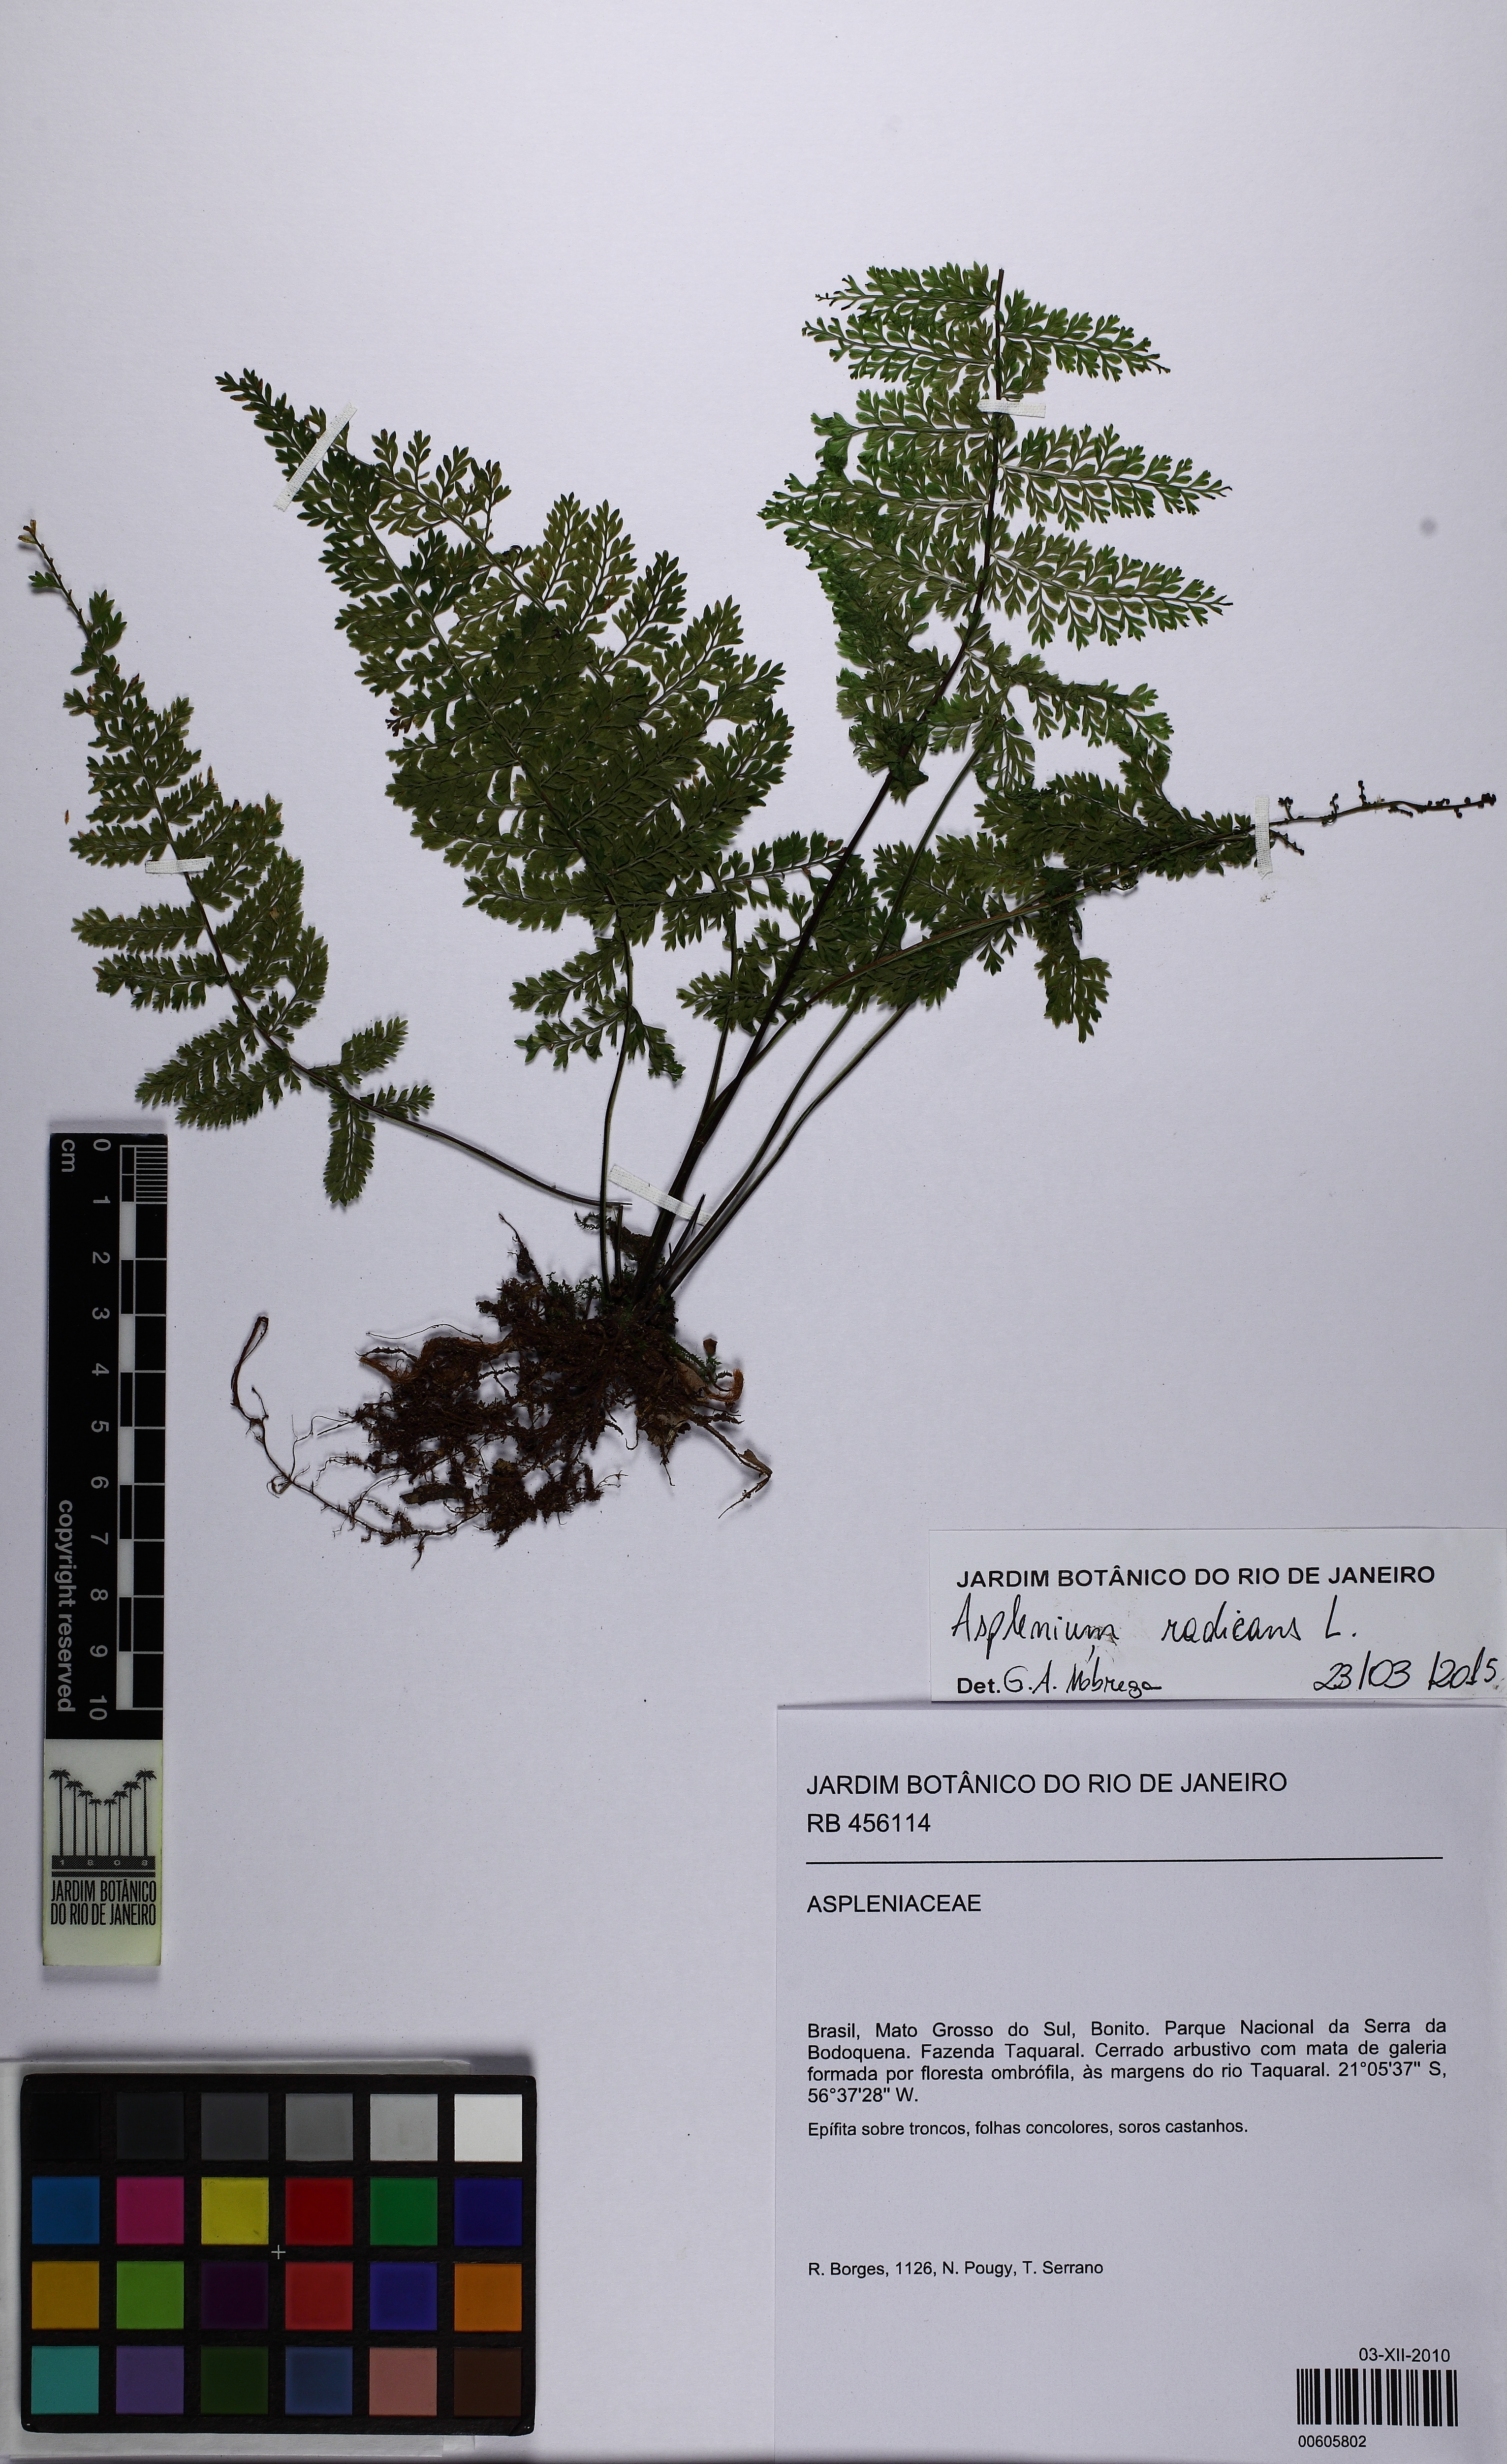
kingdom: Plantae
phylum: Tracheophyta
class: Polypodiopsida
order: Polypodiales
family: Aspleniaceae
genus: Asplenium
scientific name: Asplenium cristatum
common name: Parsley spleenwort
